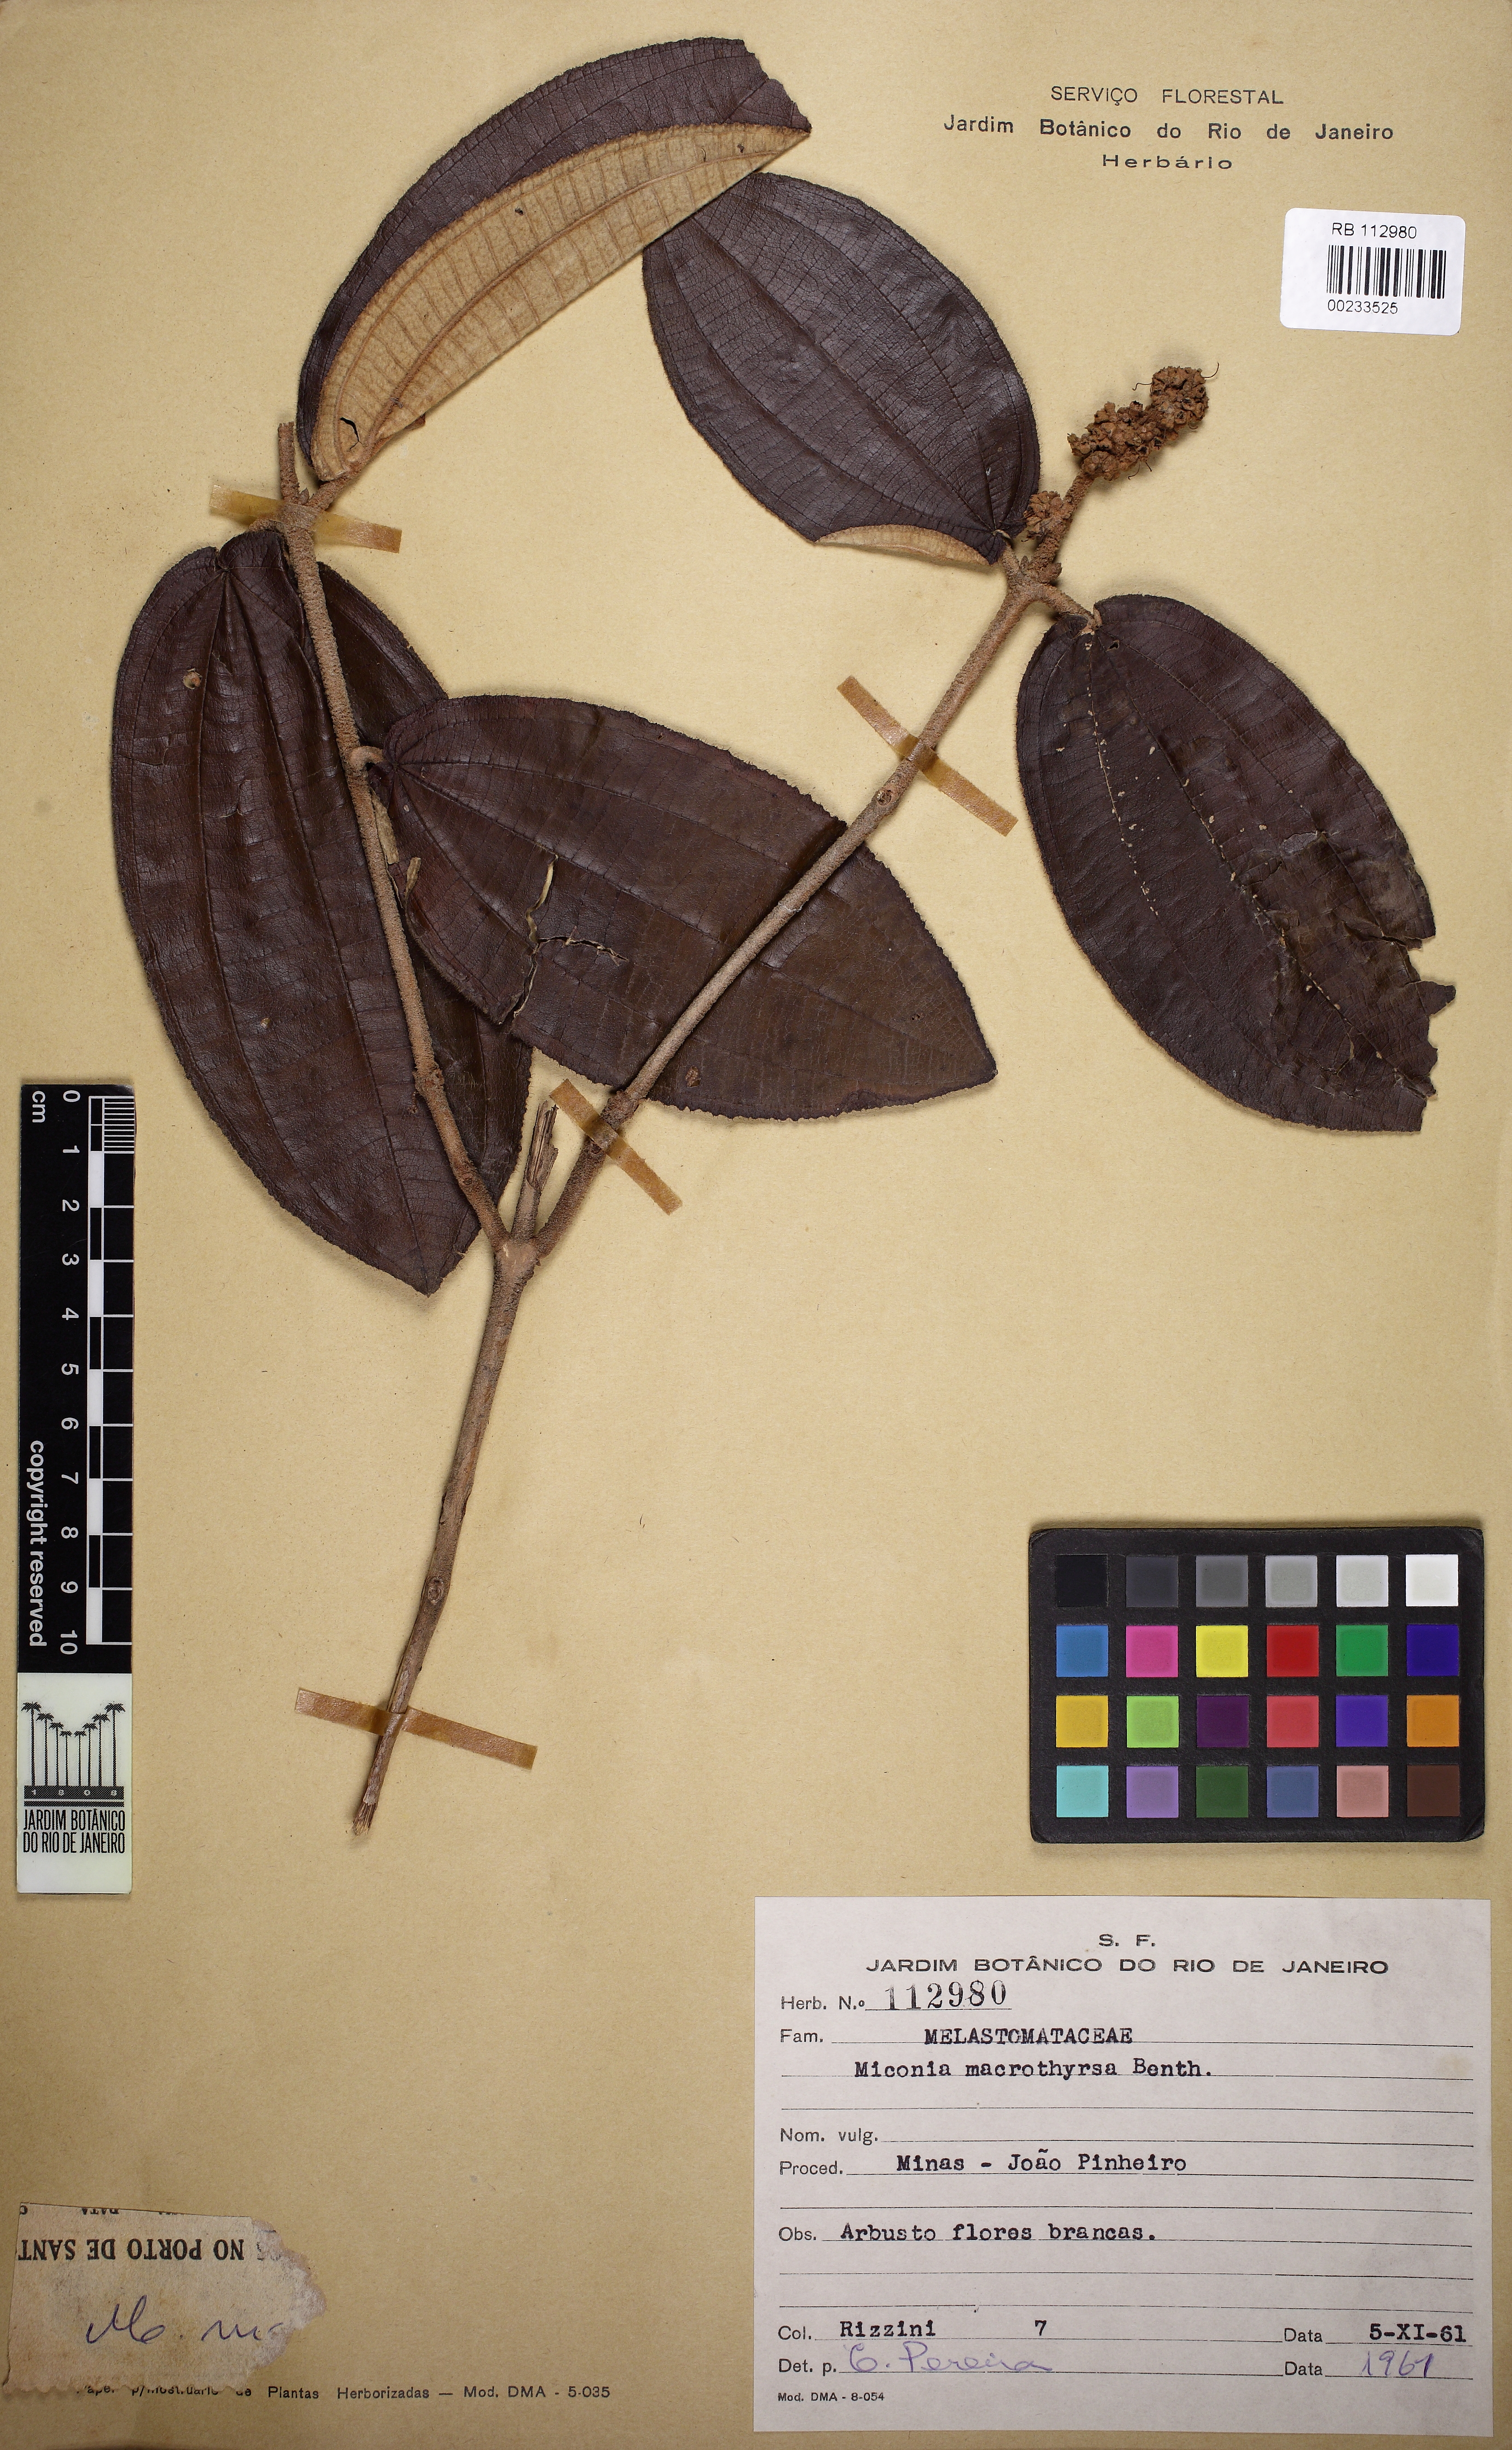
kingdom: Plantae
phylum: Tracheophyta
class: Magnoliopsida
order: Myrtales
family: Melastomataceae
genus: Miconia
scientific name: Miconia macrothyrsa
